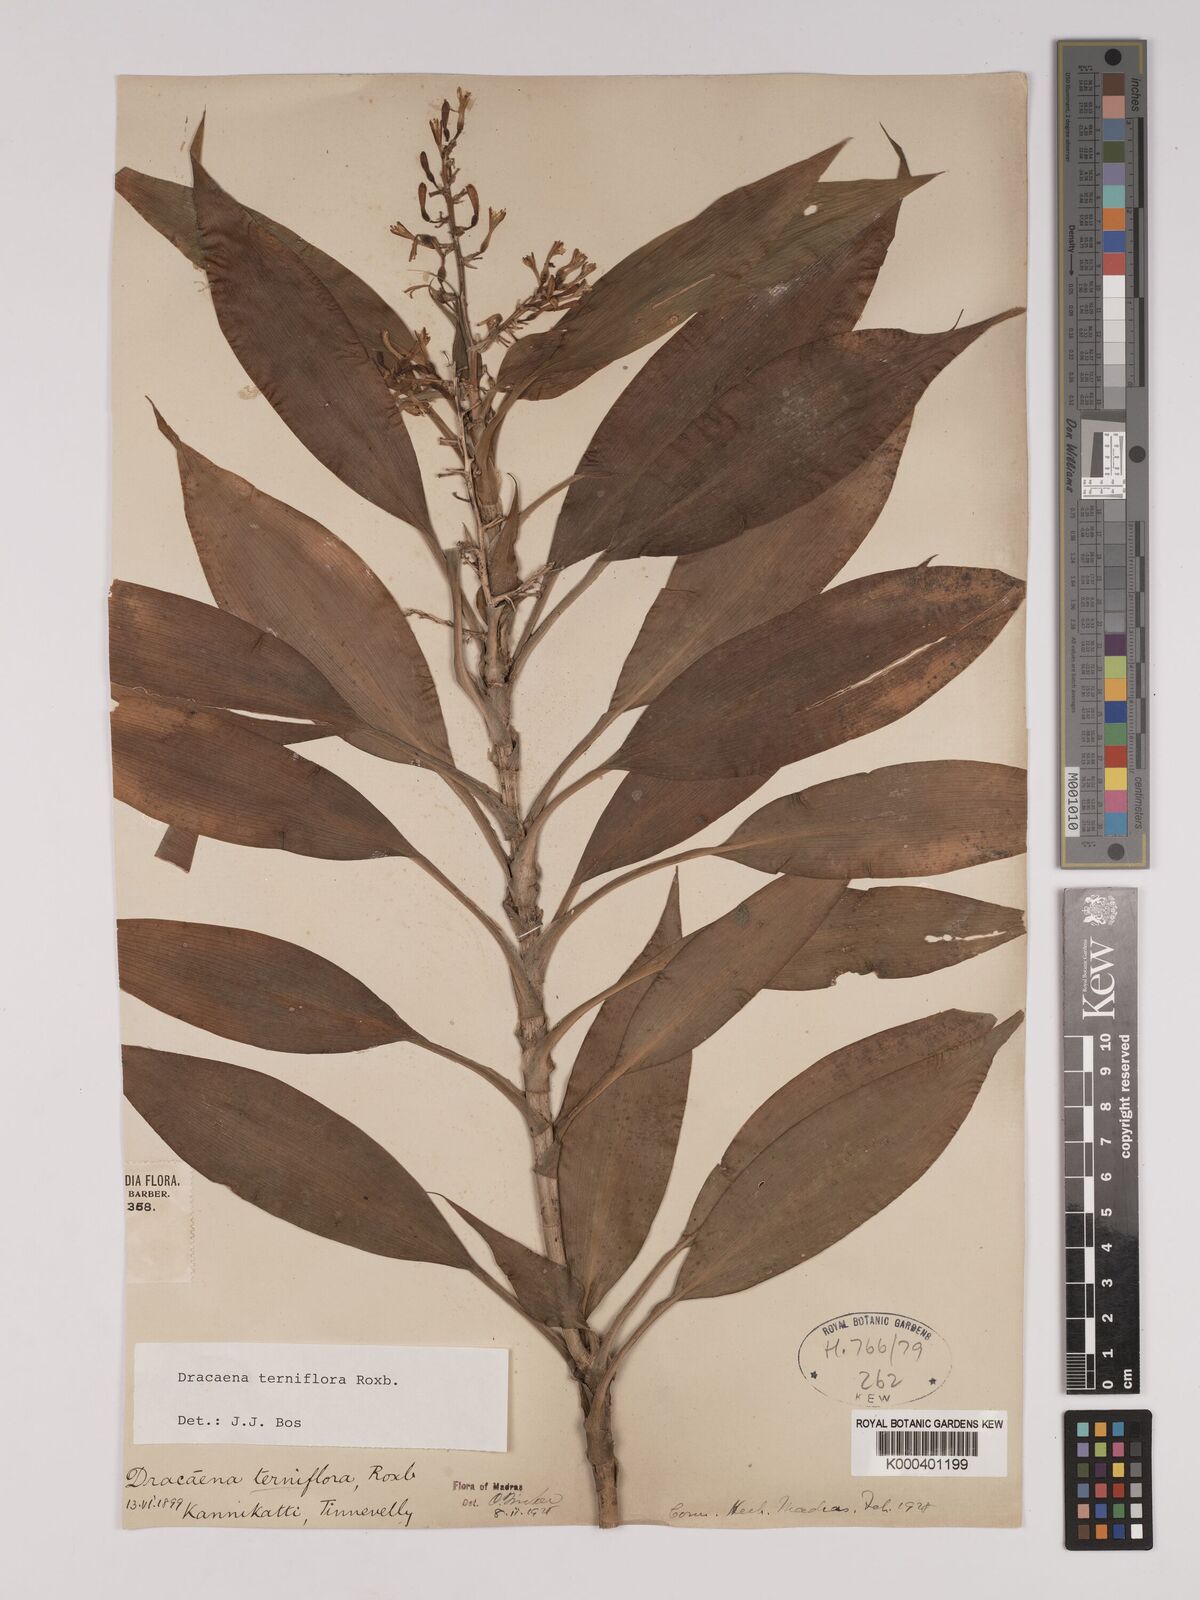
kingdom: Plantae
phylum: Tracheophyta
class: Liliopsida
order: Asparagales
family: Asparagaceae
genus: Dracaena
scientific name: Dracaena terniflora
